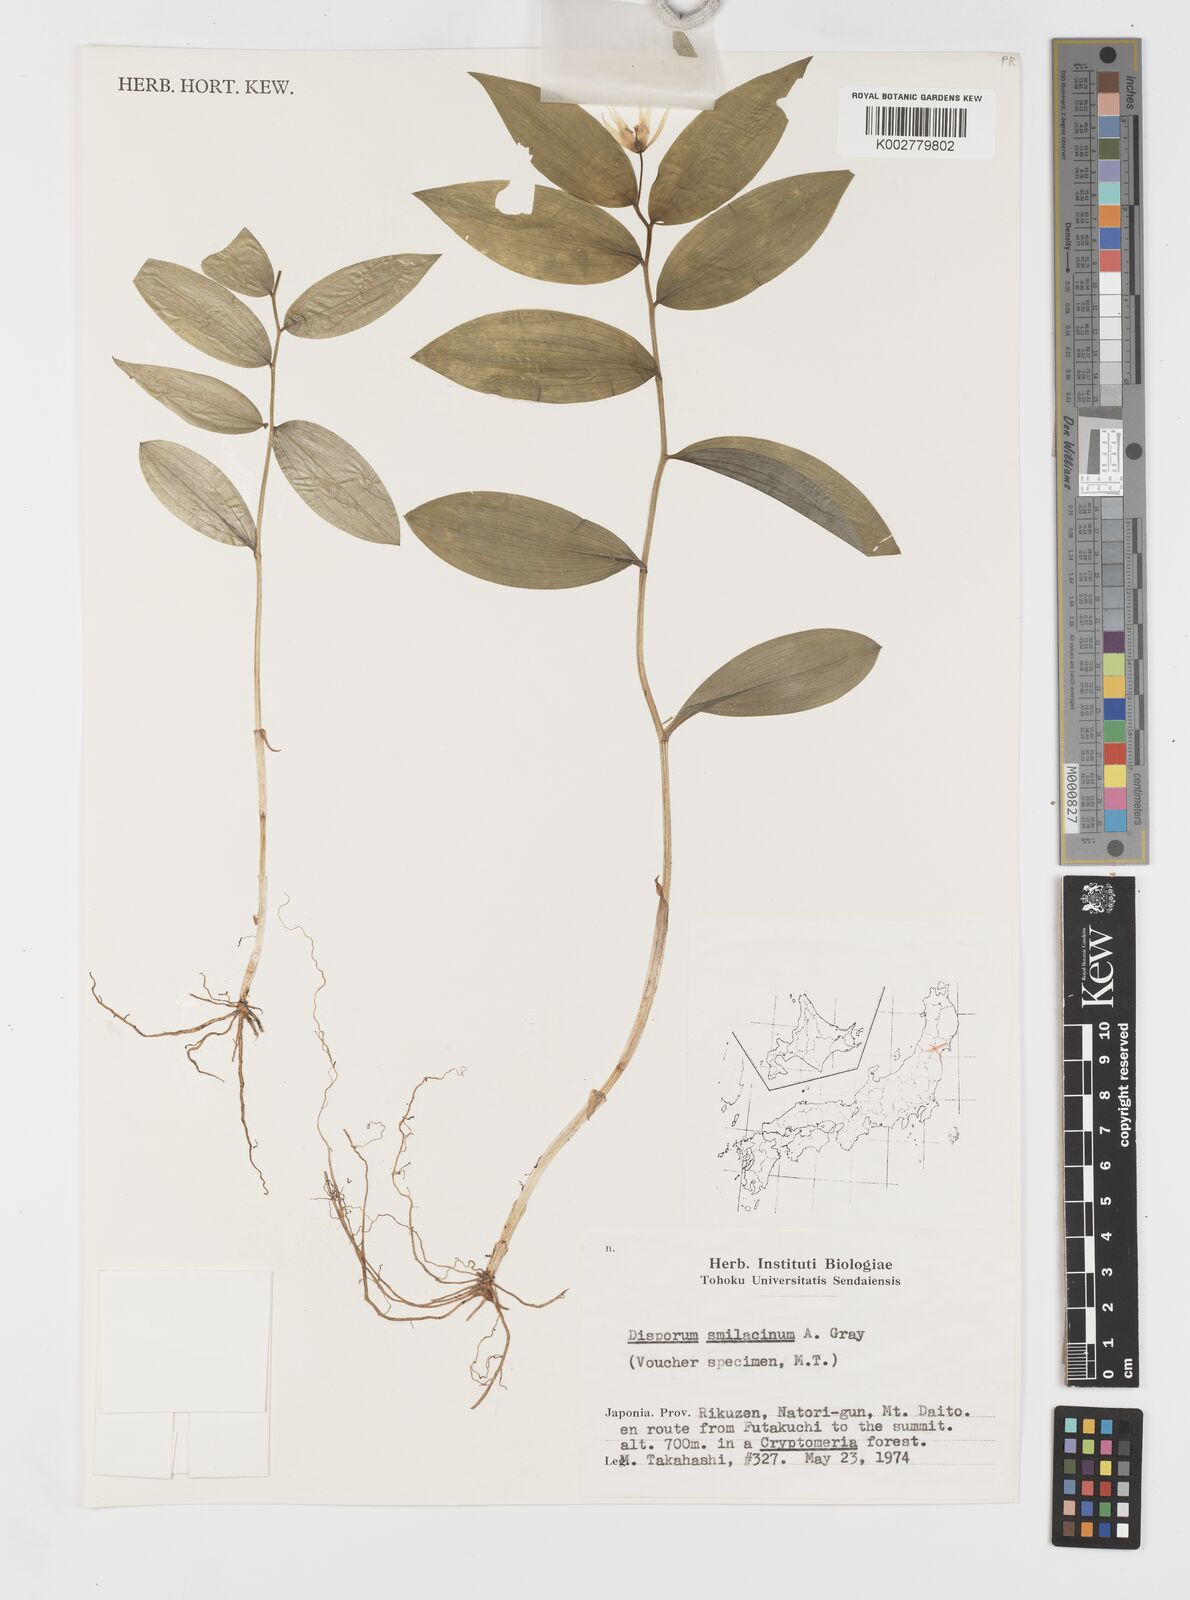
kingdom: Plantae
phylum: Tracheophyta
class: Liliopsida
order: Liliales
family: Colchicaceae
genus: Disporum
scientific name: Disporum smilacinum
